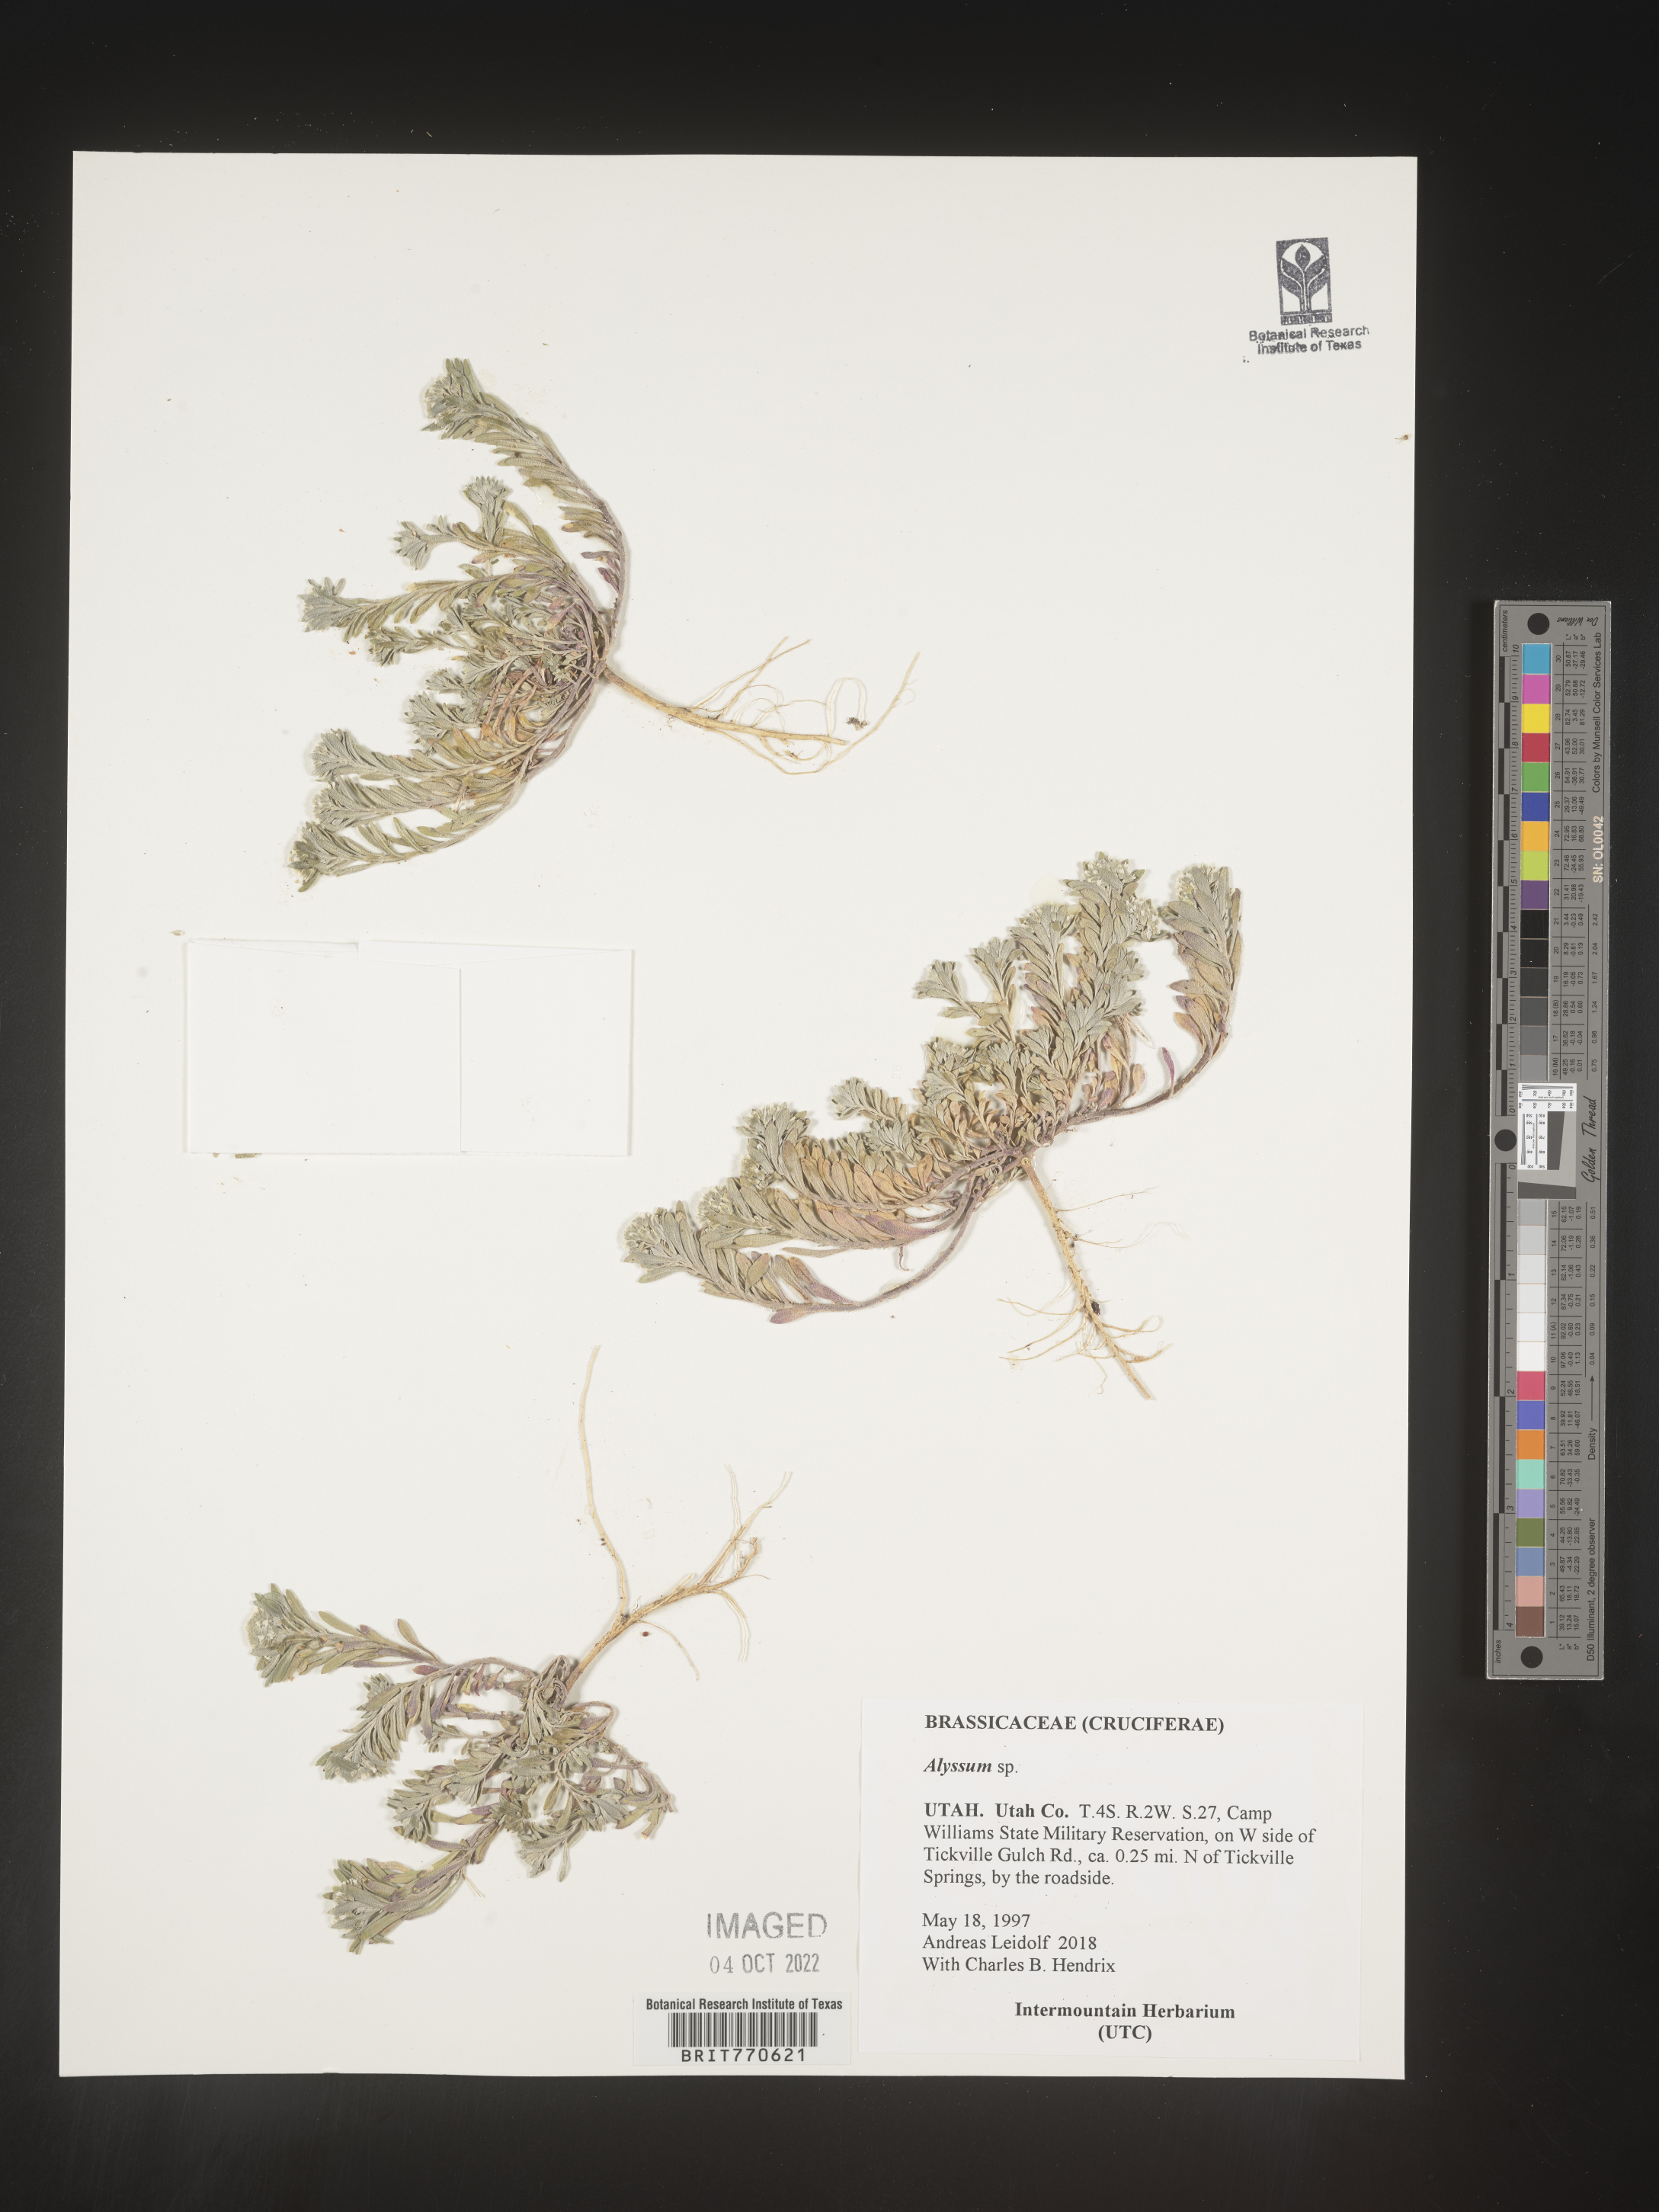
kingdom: Plantae
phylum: Tracheophyta
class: Magnoliopsida
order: Brassicales
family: Brassicaceae
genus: Alyssum
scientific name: Alyssum
